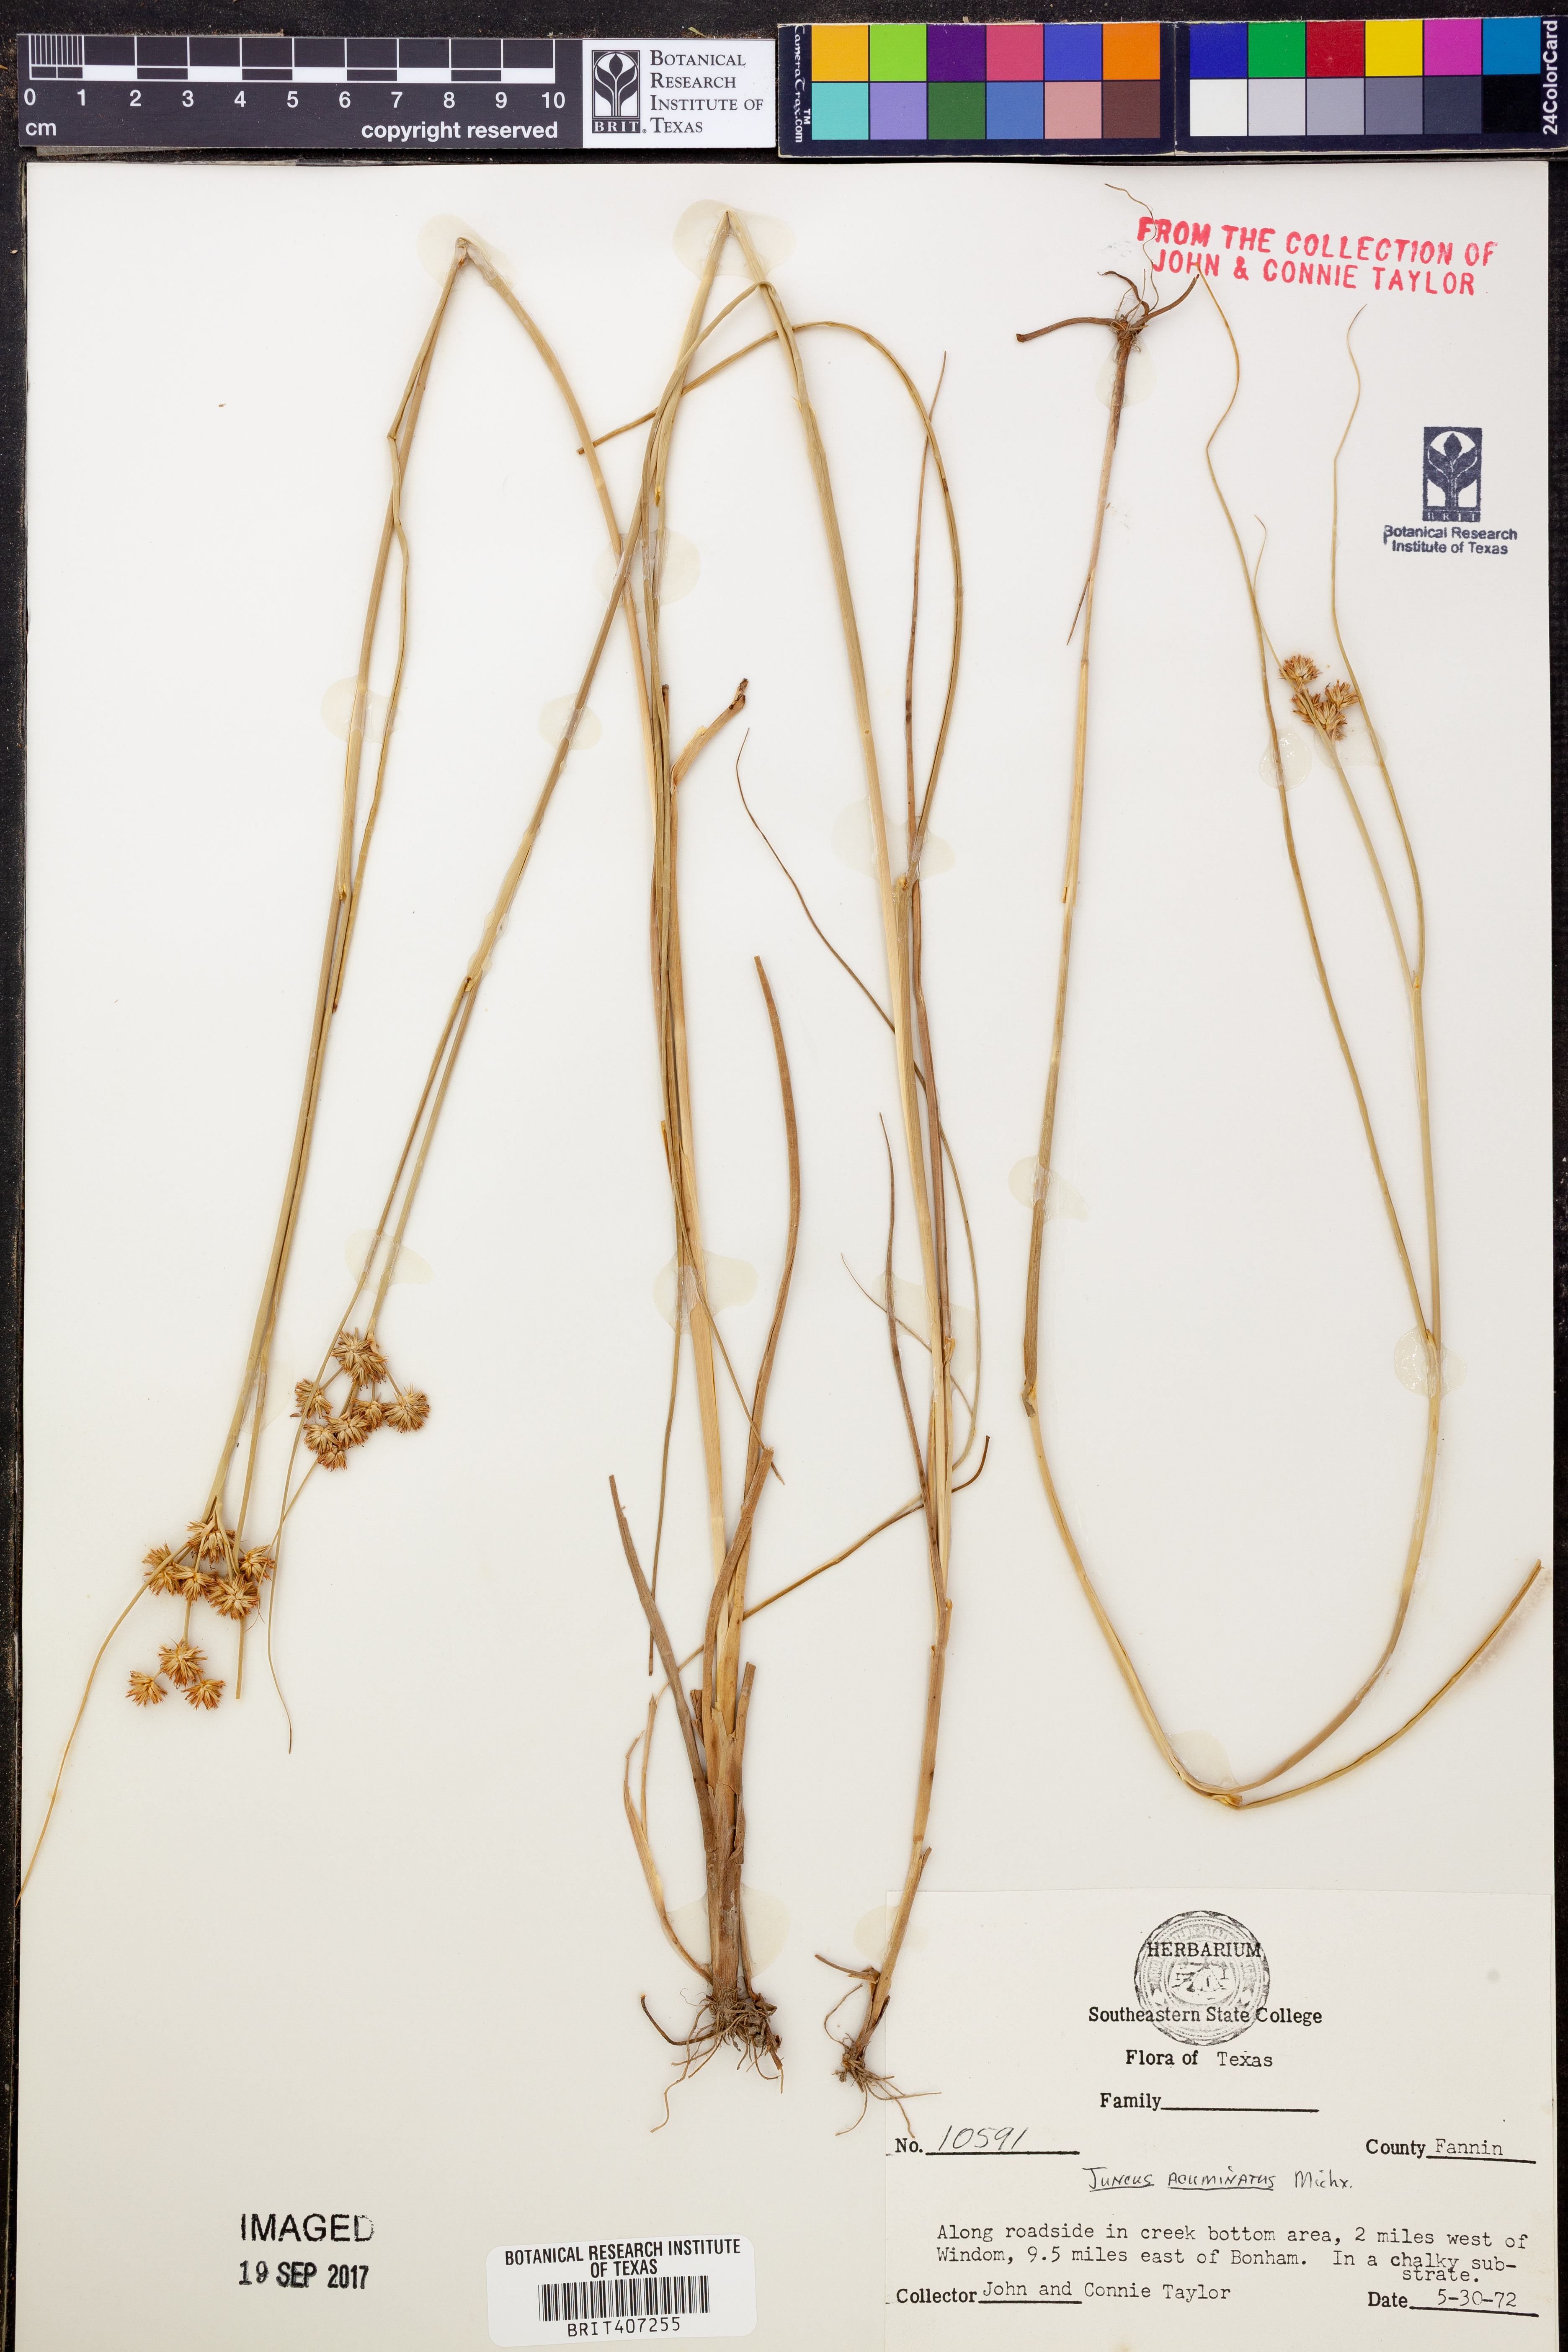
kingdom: Plantae
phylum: Tracheophyta
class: Liliopsida
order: Poales
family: Juncaceae
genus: Juncus
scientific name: Juncus acuminatus
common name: Knotty-leaved rush
